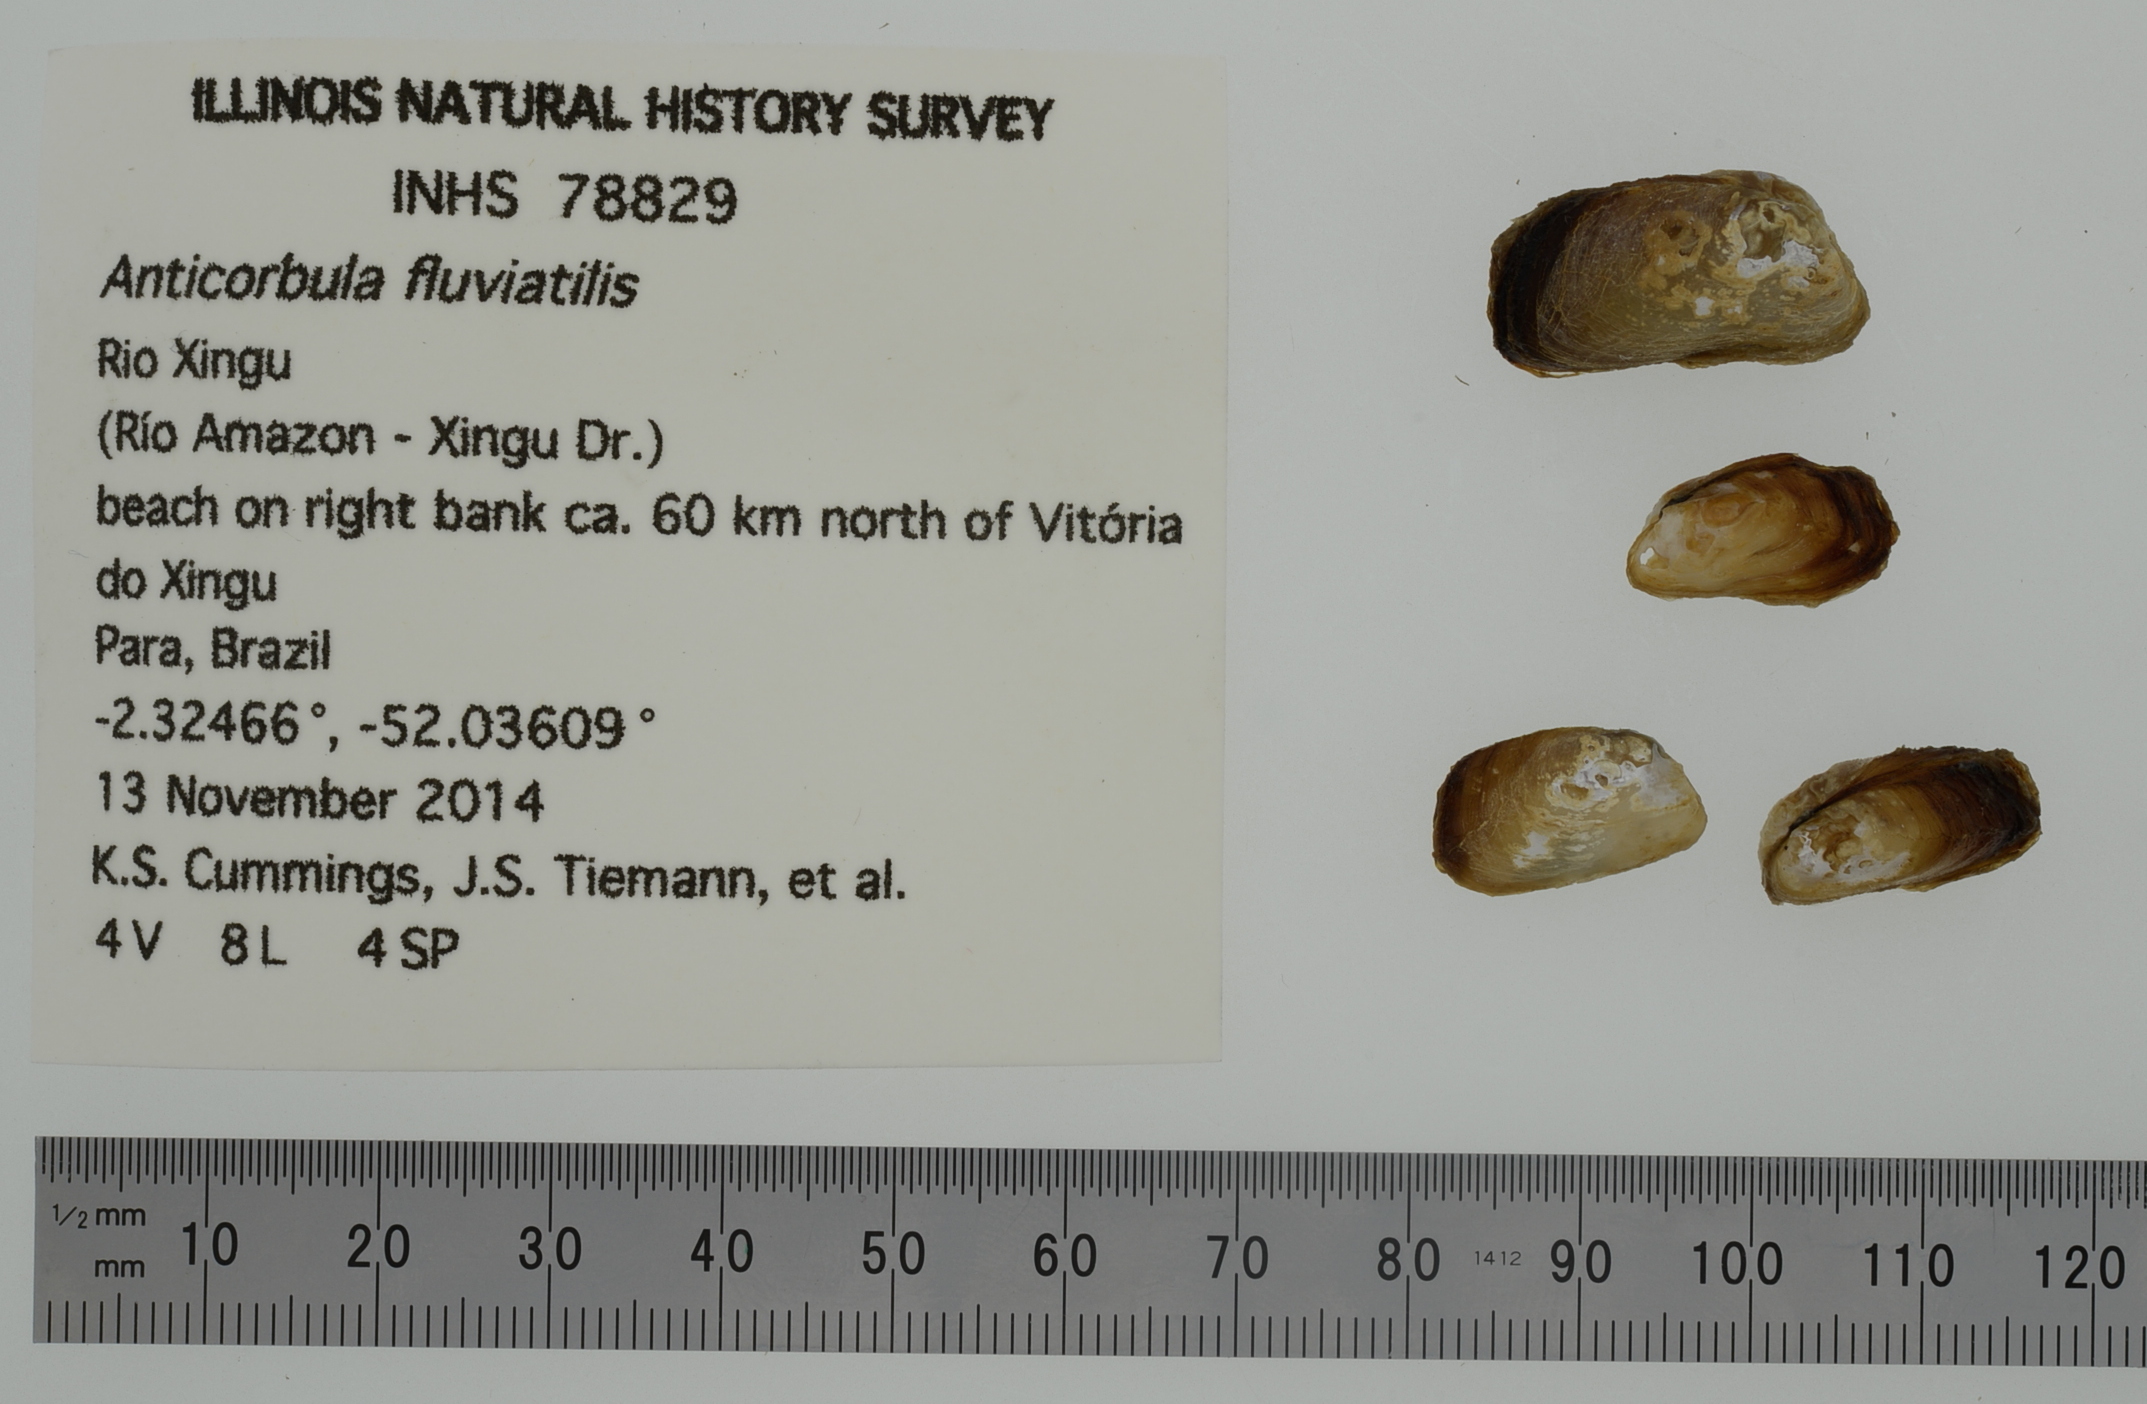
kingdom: Animalia
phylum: Mollusca
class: Bivalvia
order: Myida
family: Corbulidae
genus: Anticorbula
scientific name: Anticorbula fluviatilis
